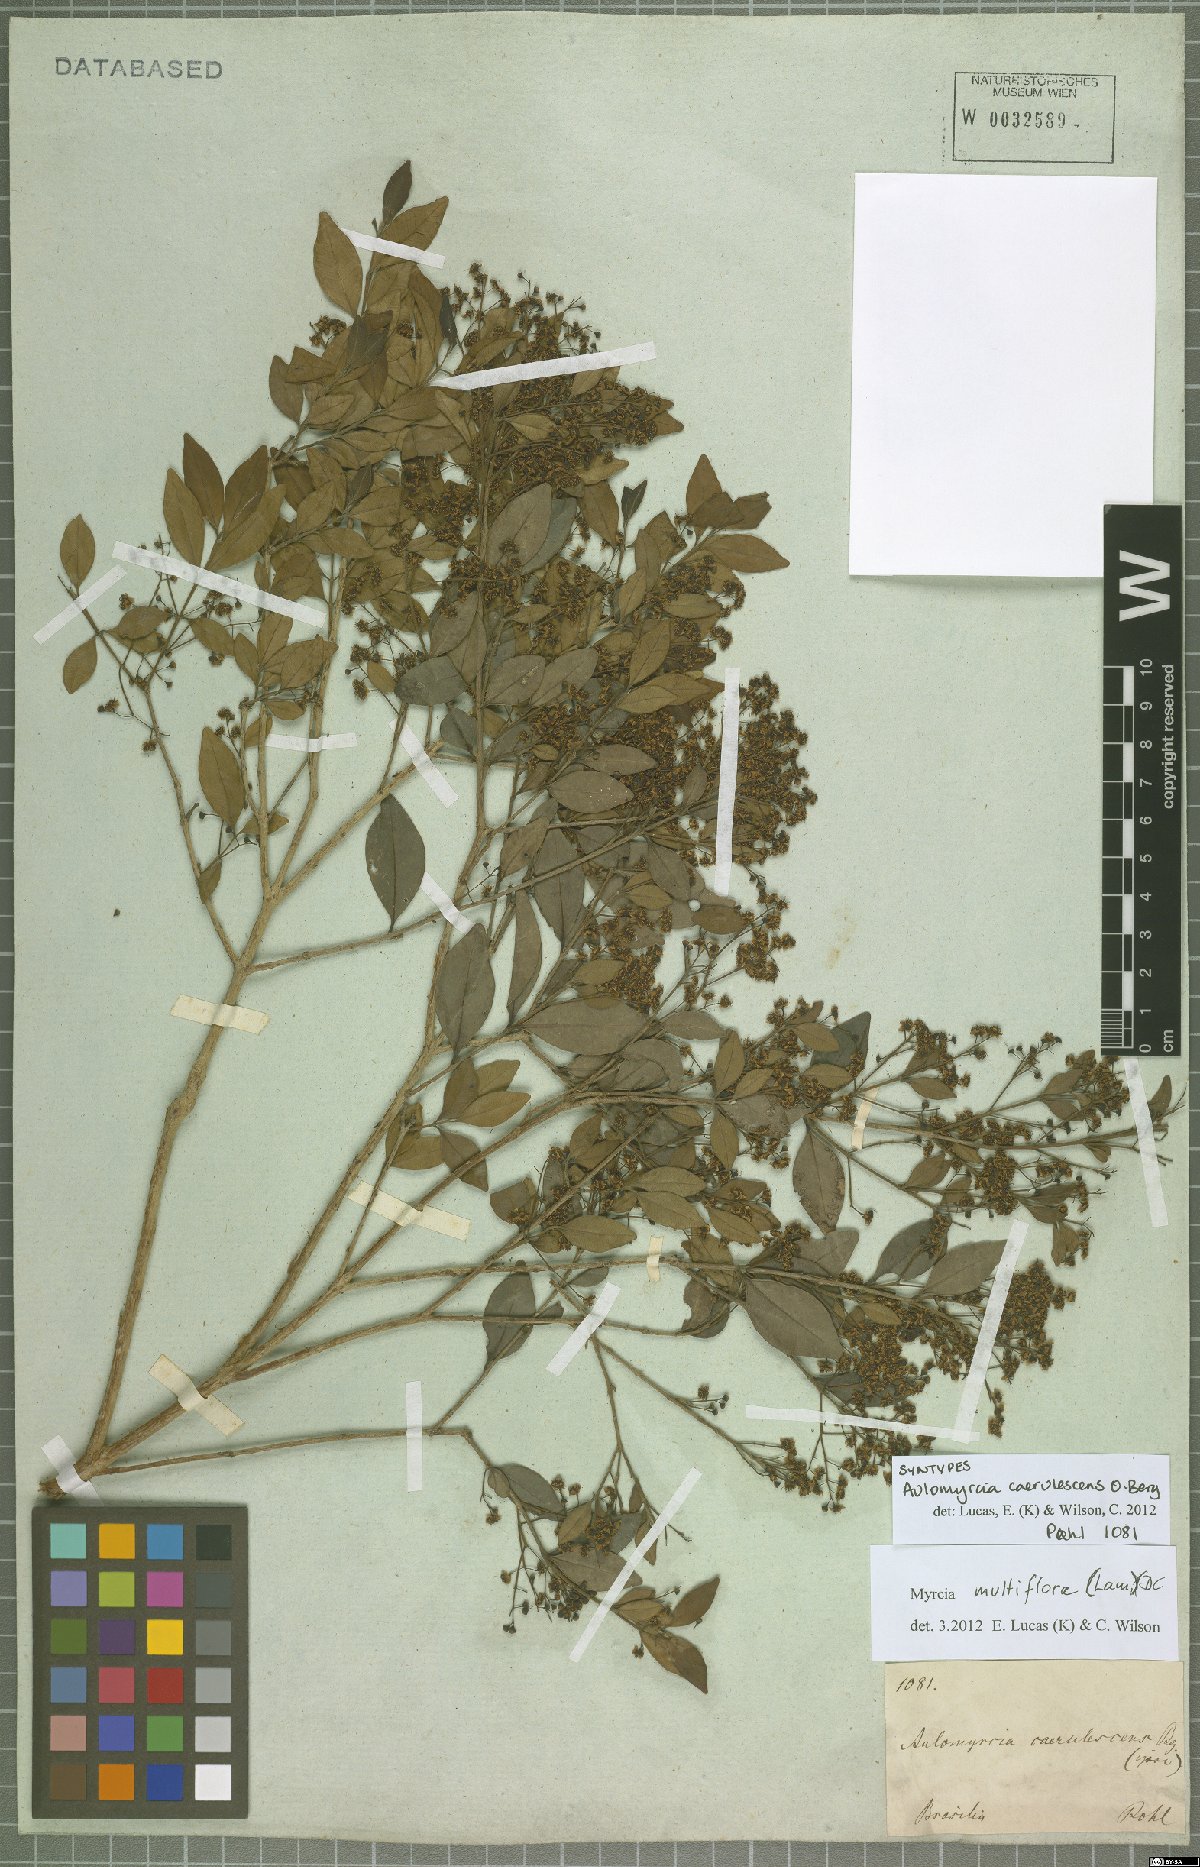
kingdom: Plantae
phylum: Tracheophyta
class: Magnoliopsida
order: Myrtales
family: Myrtaceae
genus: Myrcia
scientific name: Myrcia multiflora
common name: Pedra hume
